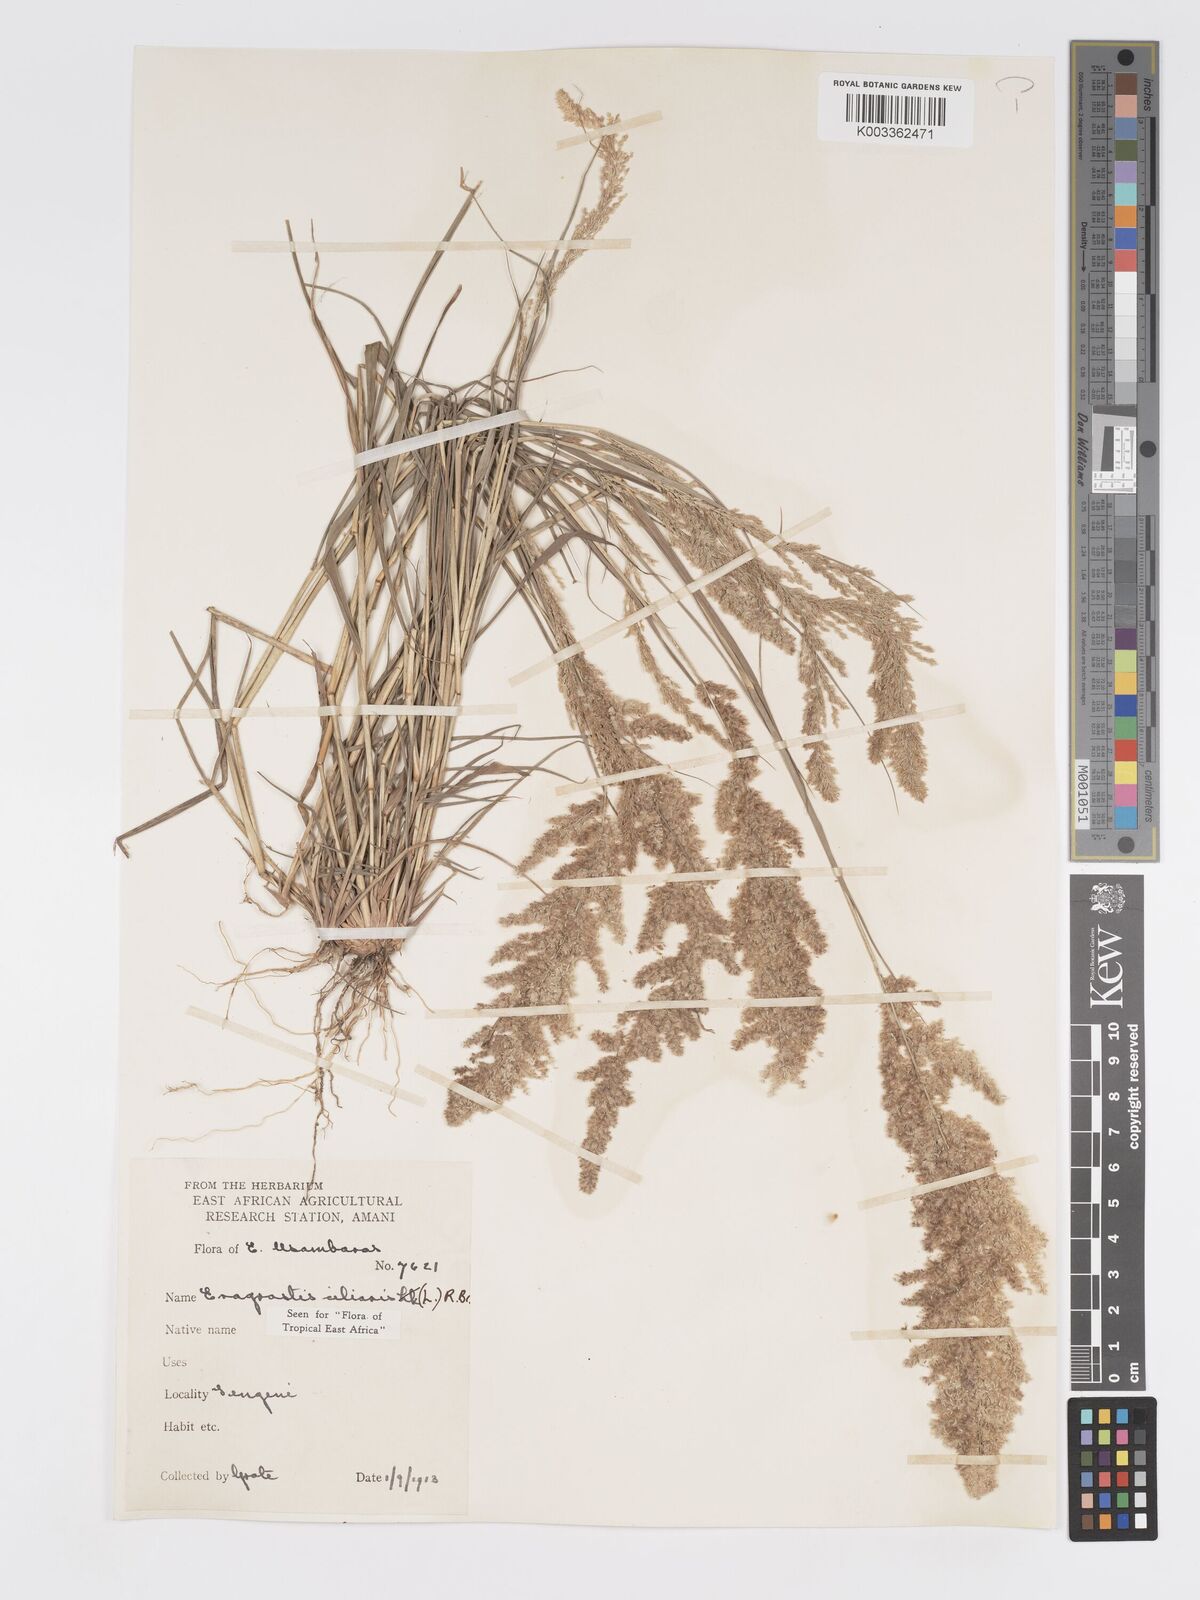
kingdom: Plantae
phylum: Tracheophyta
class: Liliopsida
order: Poales
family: Poaceae
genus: Eragrostis
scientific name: Eragrostis ciliaris
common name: Gophertail lovegrass
